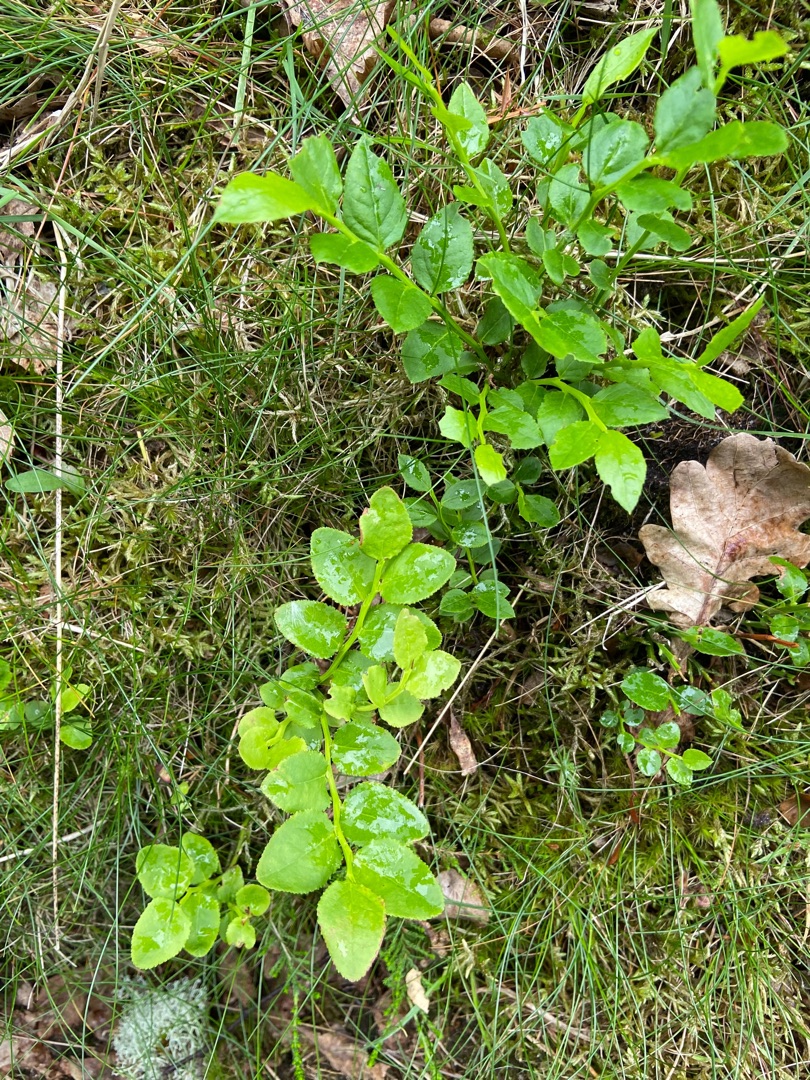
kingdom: Plantae
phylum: Tracheophyta
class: Magnoliopsida
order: Ericales
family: Ericaceae
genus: Vaccinium
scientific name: Vaccinium myrtillus
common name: Blåbær
